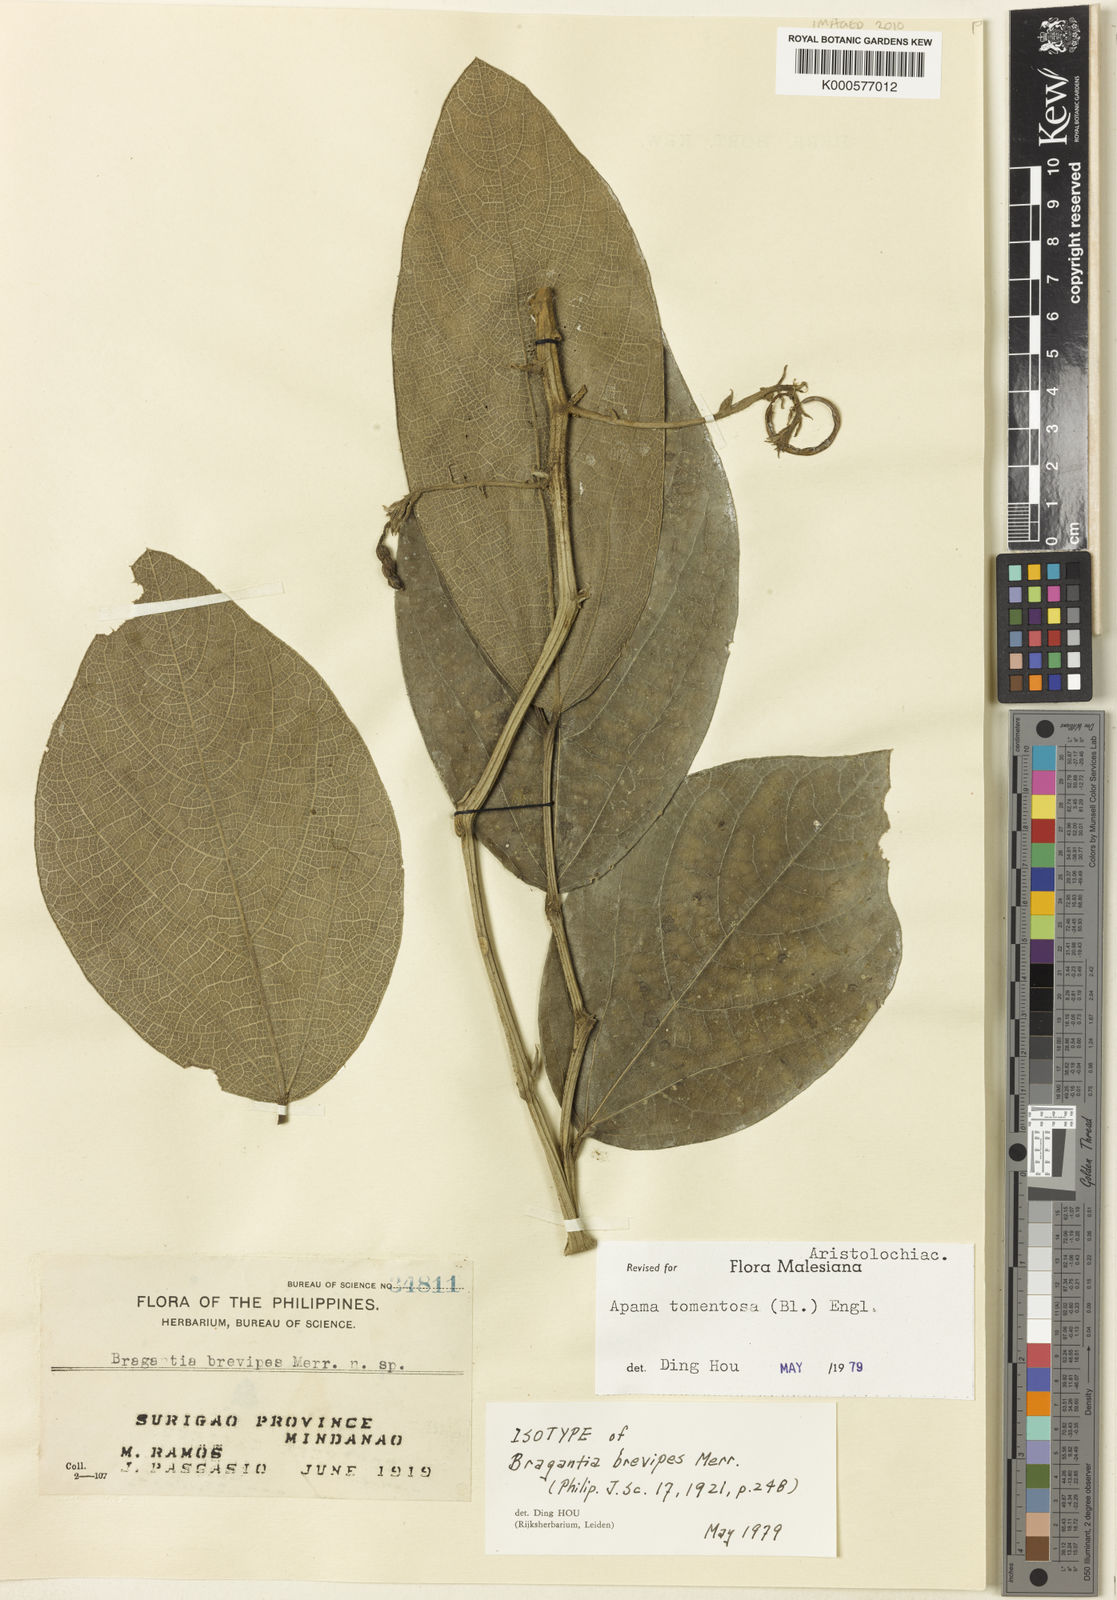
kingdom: Plantae
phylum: Tracheophyta
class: Magnoliopsida
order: Piperales
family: Aristolochiaceae
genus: Thottea
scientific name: Thottea tomentosa
